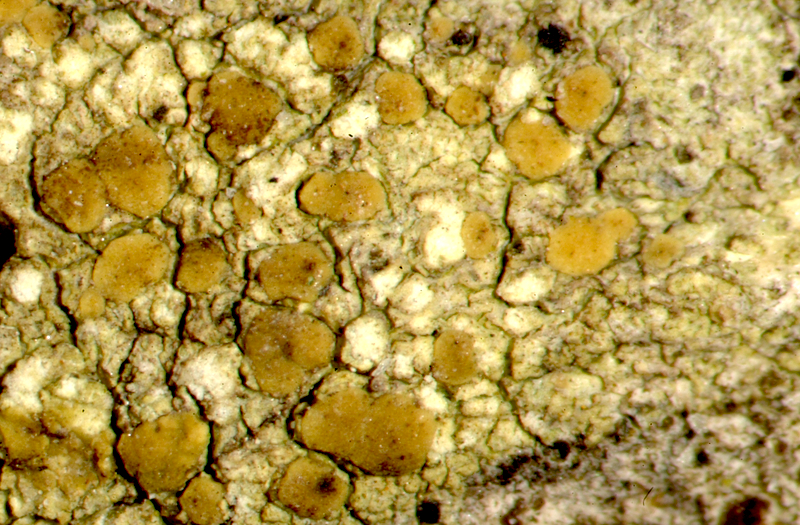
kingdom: Fungi
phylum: Ascomycota
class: Arthoniomycetes
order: Arthoniales
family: Opegraphaceae
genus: Opegrapha
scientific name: Opegrapha
